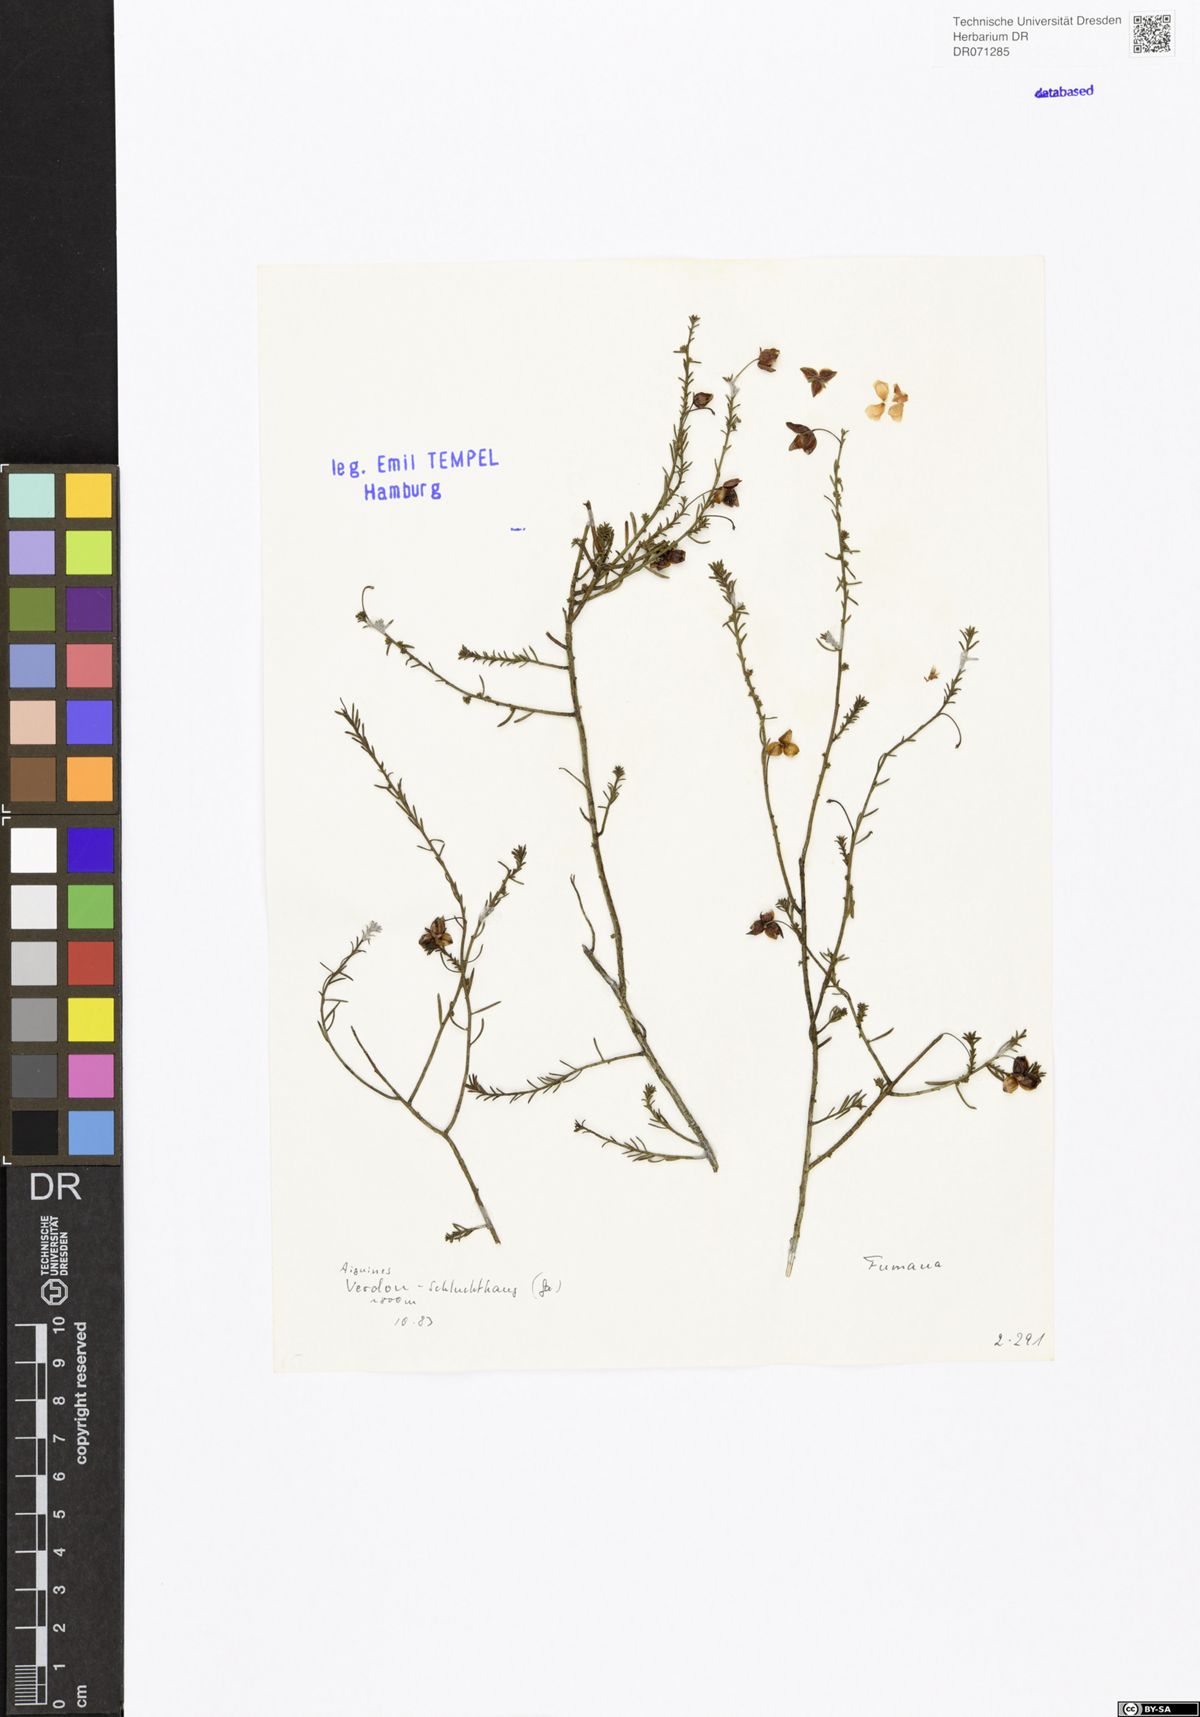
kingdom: Plantae
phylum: Tracheophyta
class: Magnoliopsida
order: Malvales
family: Cistaceae
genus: Fumana
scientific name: Fumana
